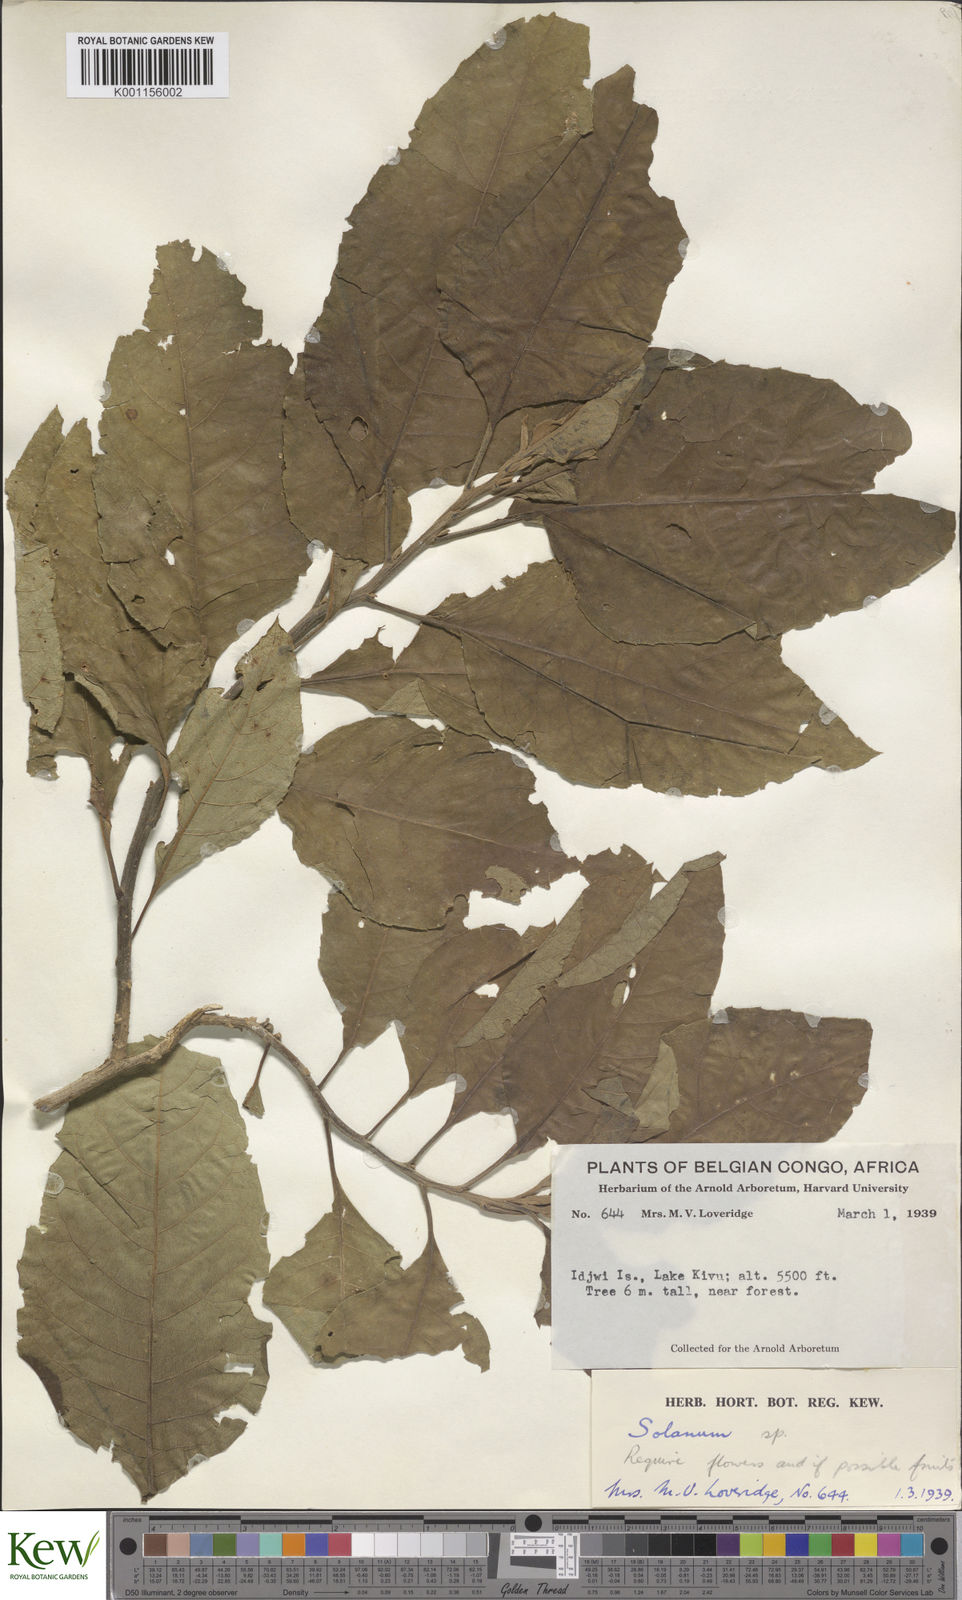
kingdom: Plantae
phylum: Tracheophyta
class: Magnoliopsida
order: Solanales
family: Solanaceae
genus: Solanum
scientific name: Solanum
